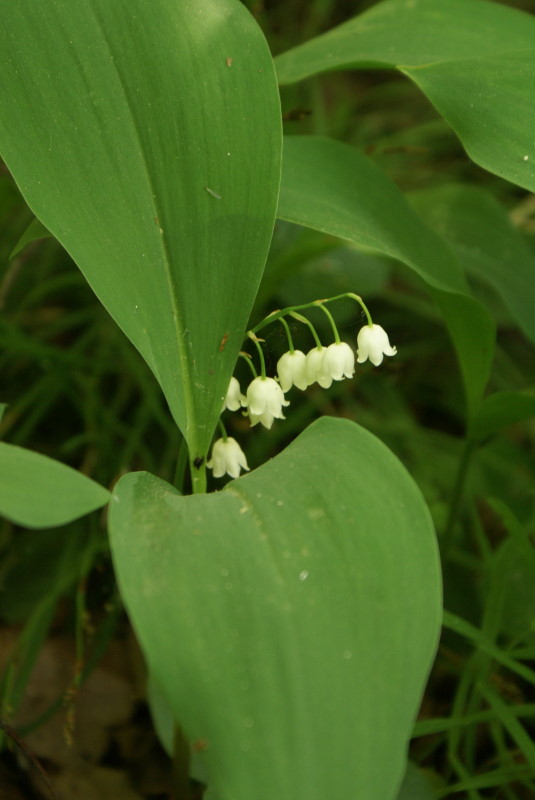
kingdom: Plantae
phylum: Tracheophyta
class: Liliopsida
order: Asparagales
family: Asparagaceae
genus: Convallaria
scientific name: Convallaria majalis
